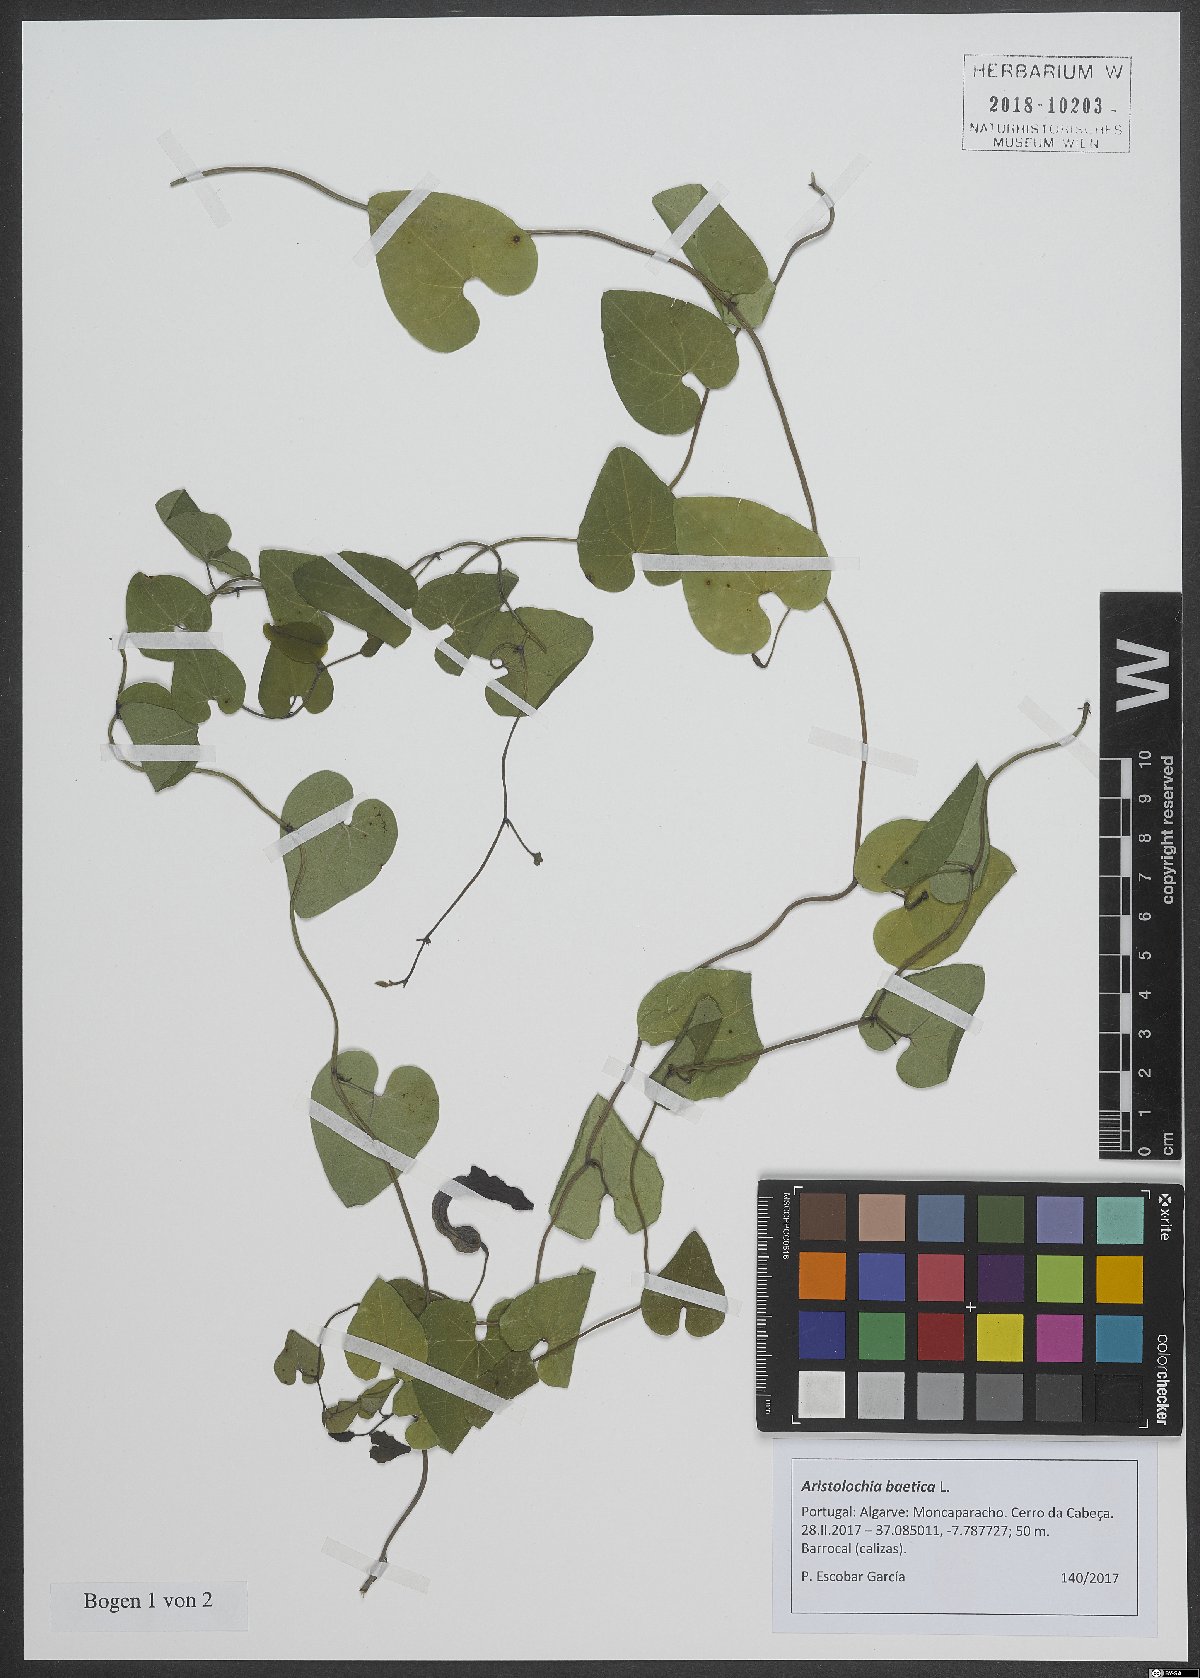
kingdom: Plantae
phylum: Tracheophyta
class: Magnoliopsida
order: Piperales
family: Aristolochiaceae
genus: Aristolochia
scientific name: Aristolochia baetica
